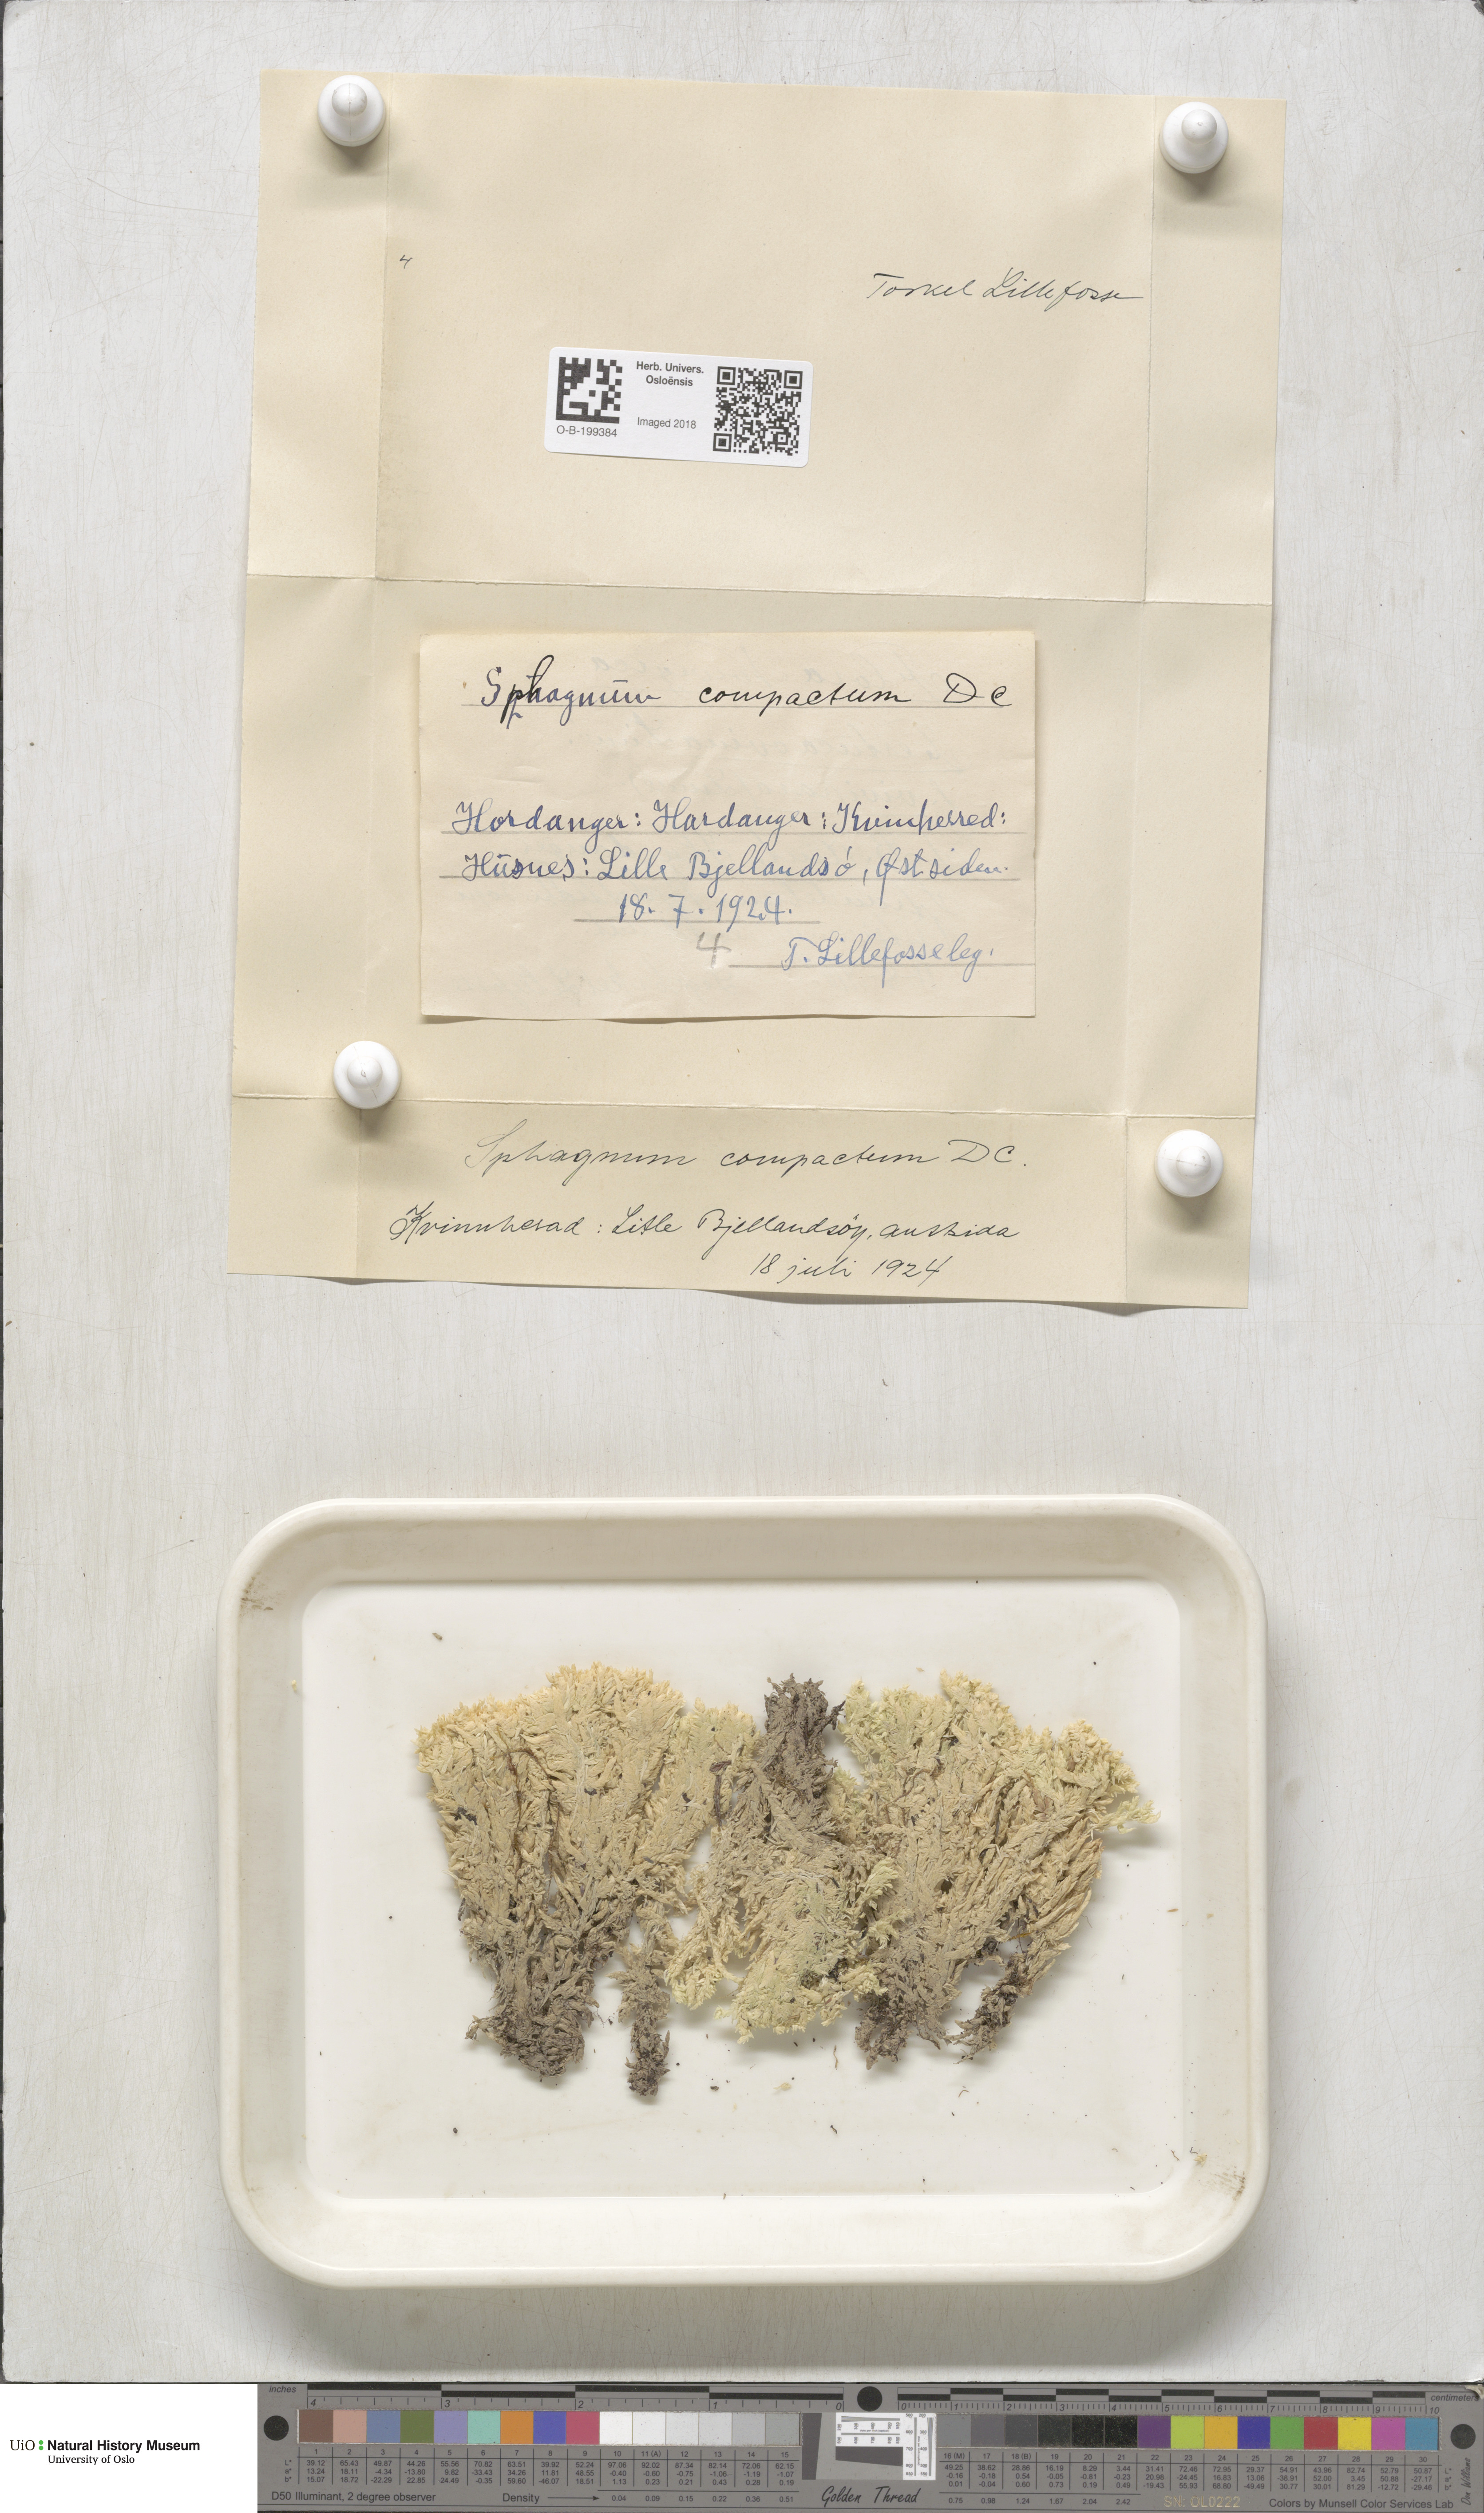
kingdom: Plantae
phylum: Bryophyta
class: Sphagnopsida
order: Sphagnales
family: Sphagnaceae
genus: Sphagnum
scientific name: Sphagnum compactum
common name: Compact peat moss
